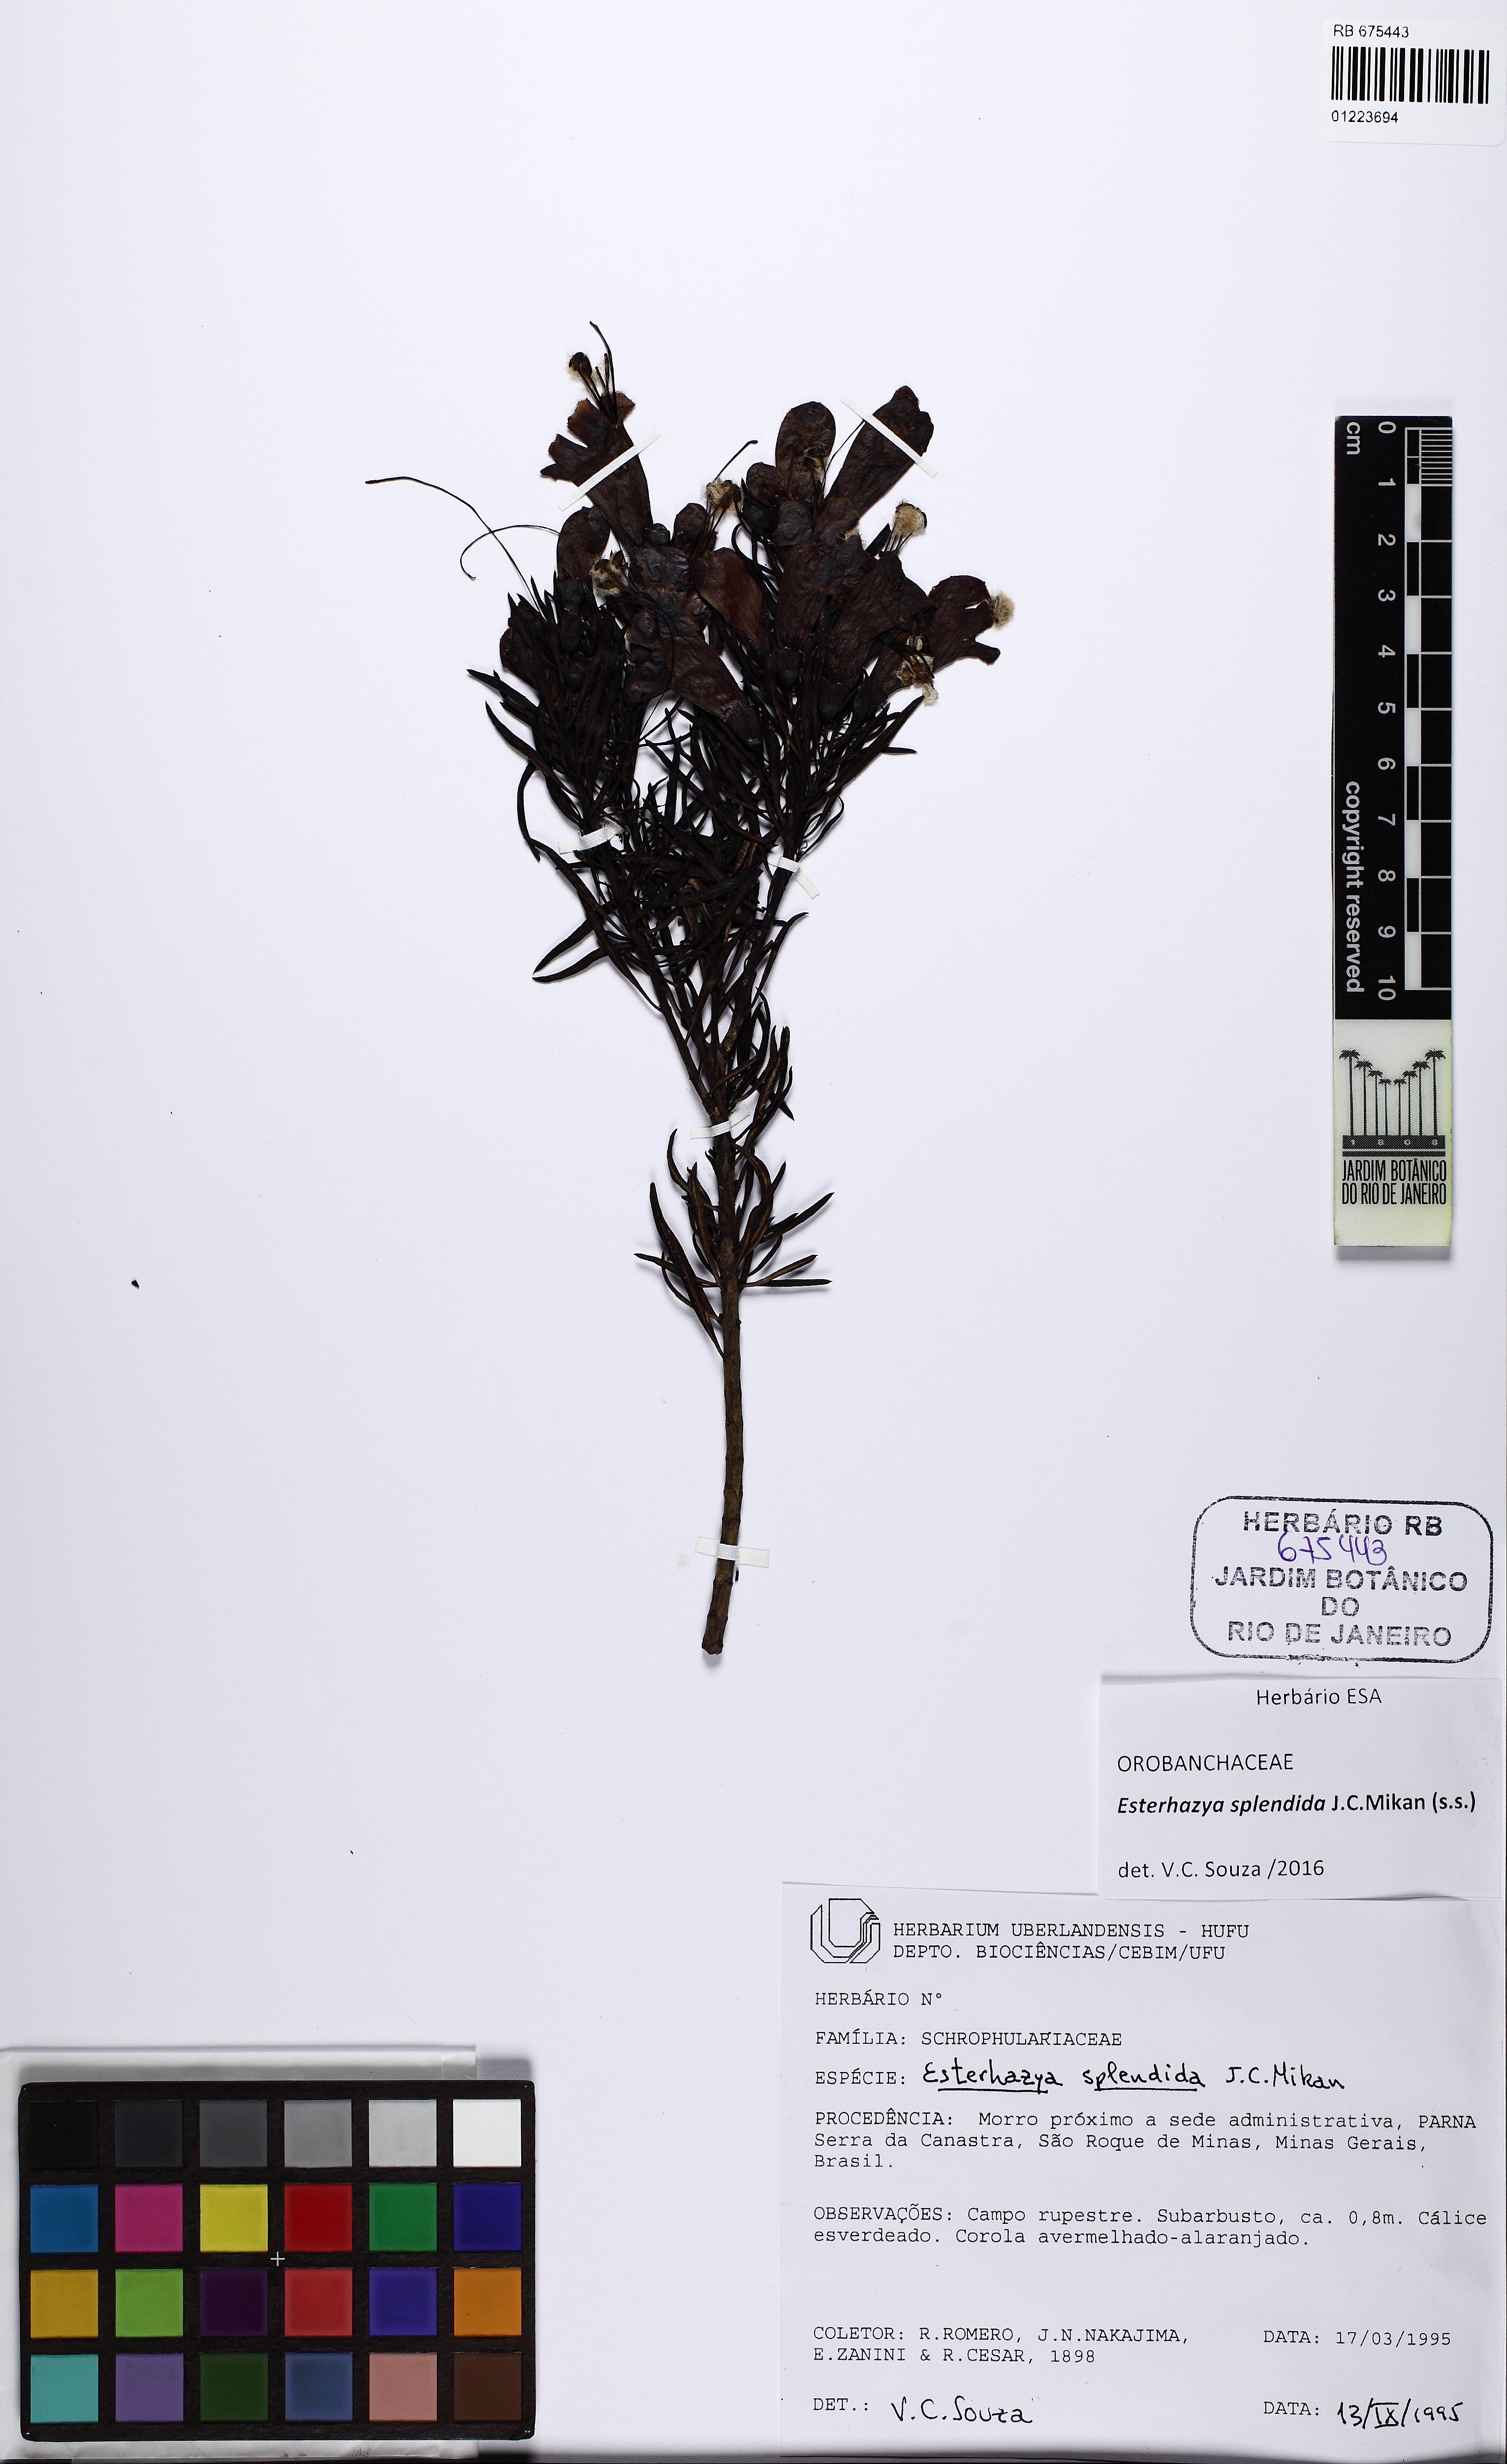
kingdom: Plantae
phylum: Tracheophyta
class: Magnoliopsida
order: Lamiales
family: Orobanchaceae
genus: Esterhazya
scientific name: Esterhazya splendida
